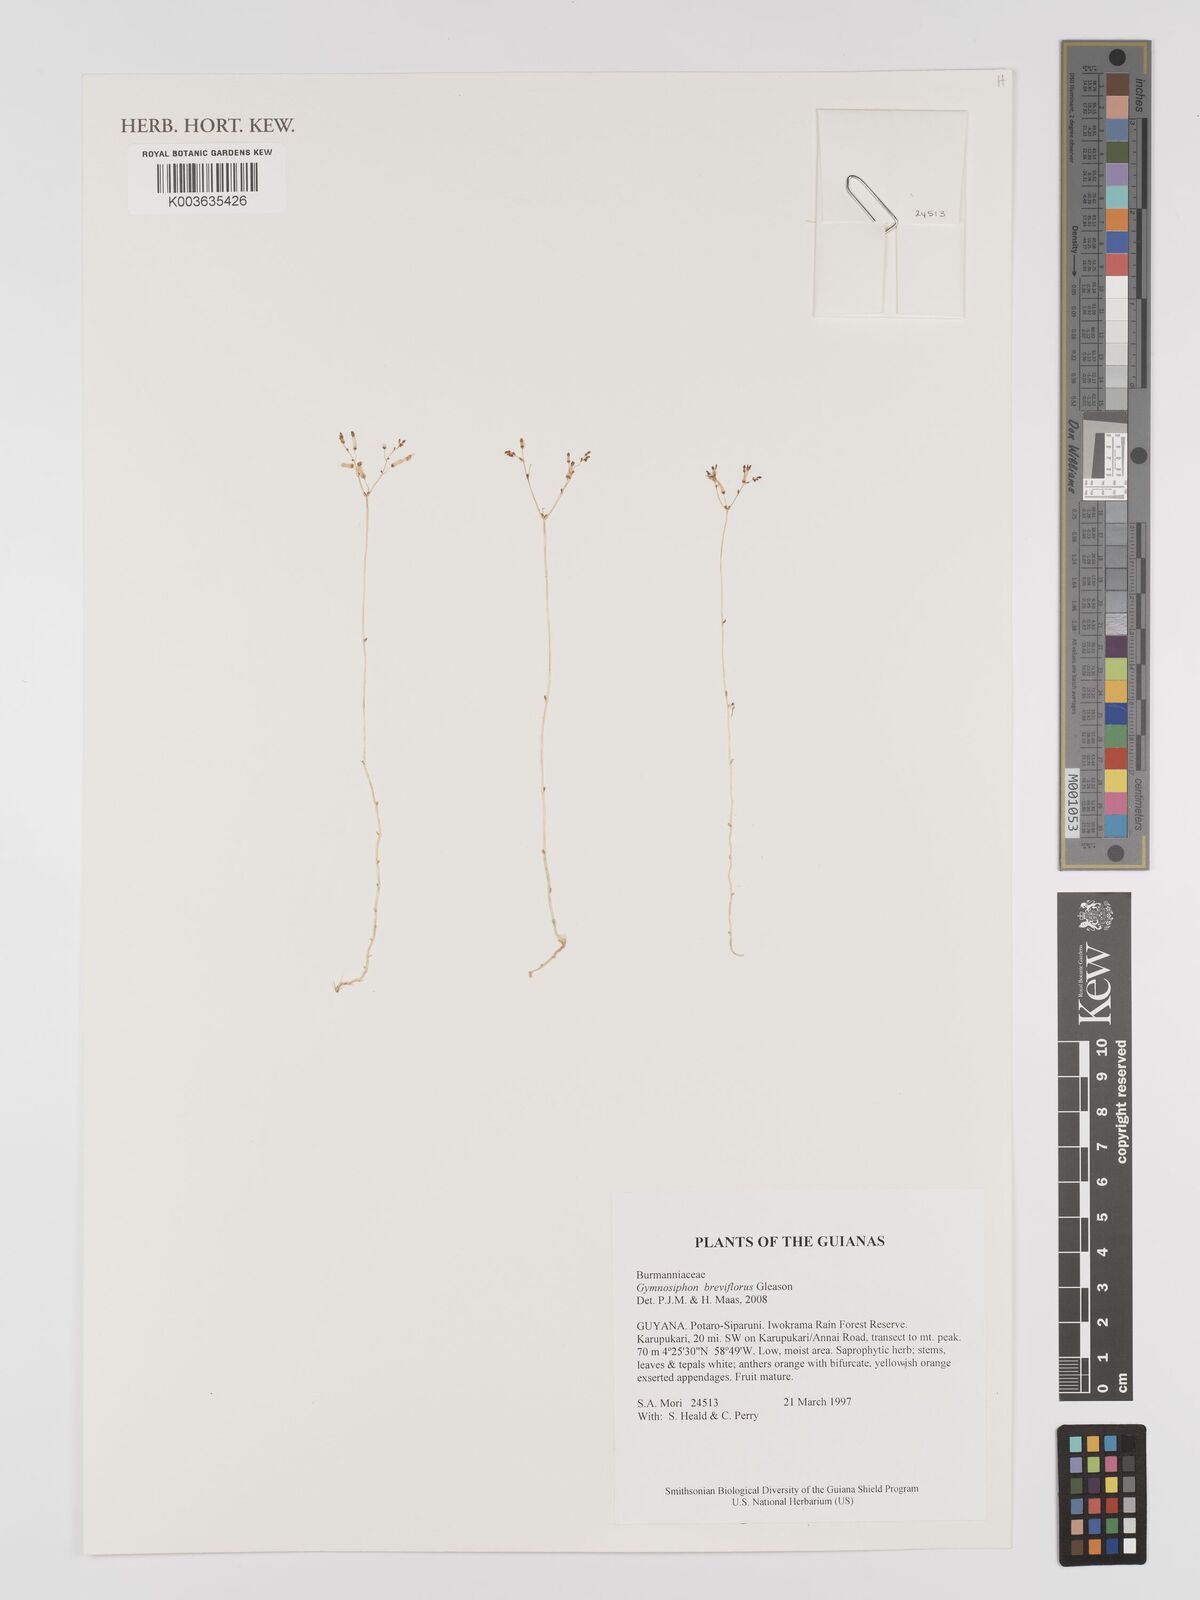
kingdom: Plantae
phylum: Tracheophyta
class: Liliopsida
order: Dioscoreales
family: Burmanniaceae
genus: Gymnosiphon
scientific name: Gymnosiphon breviflorus
